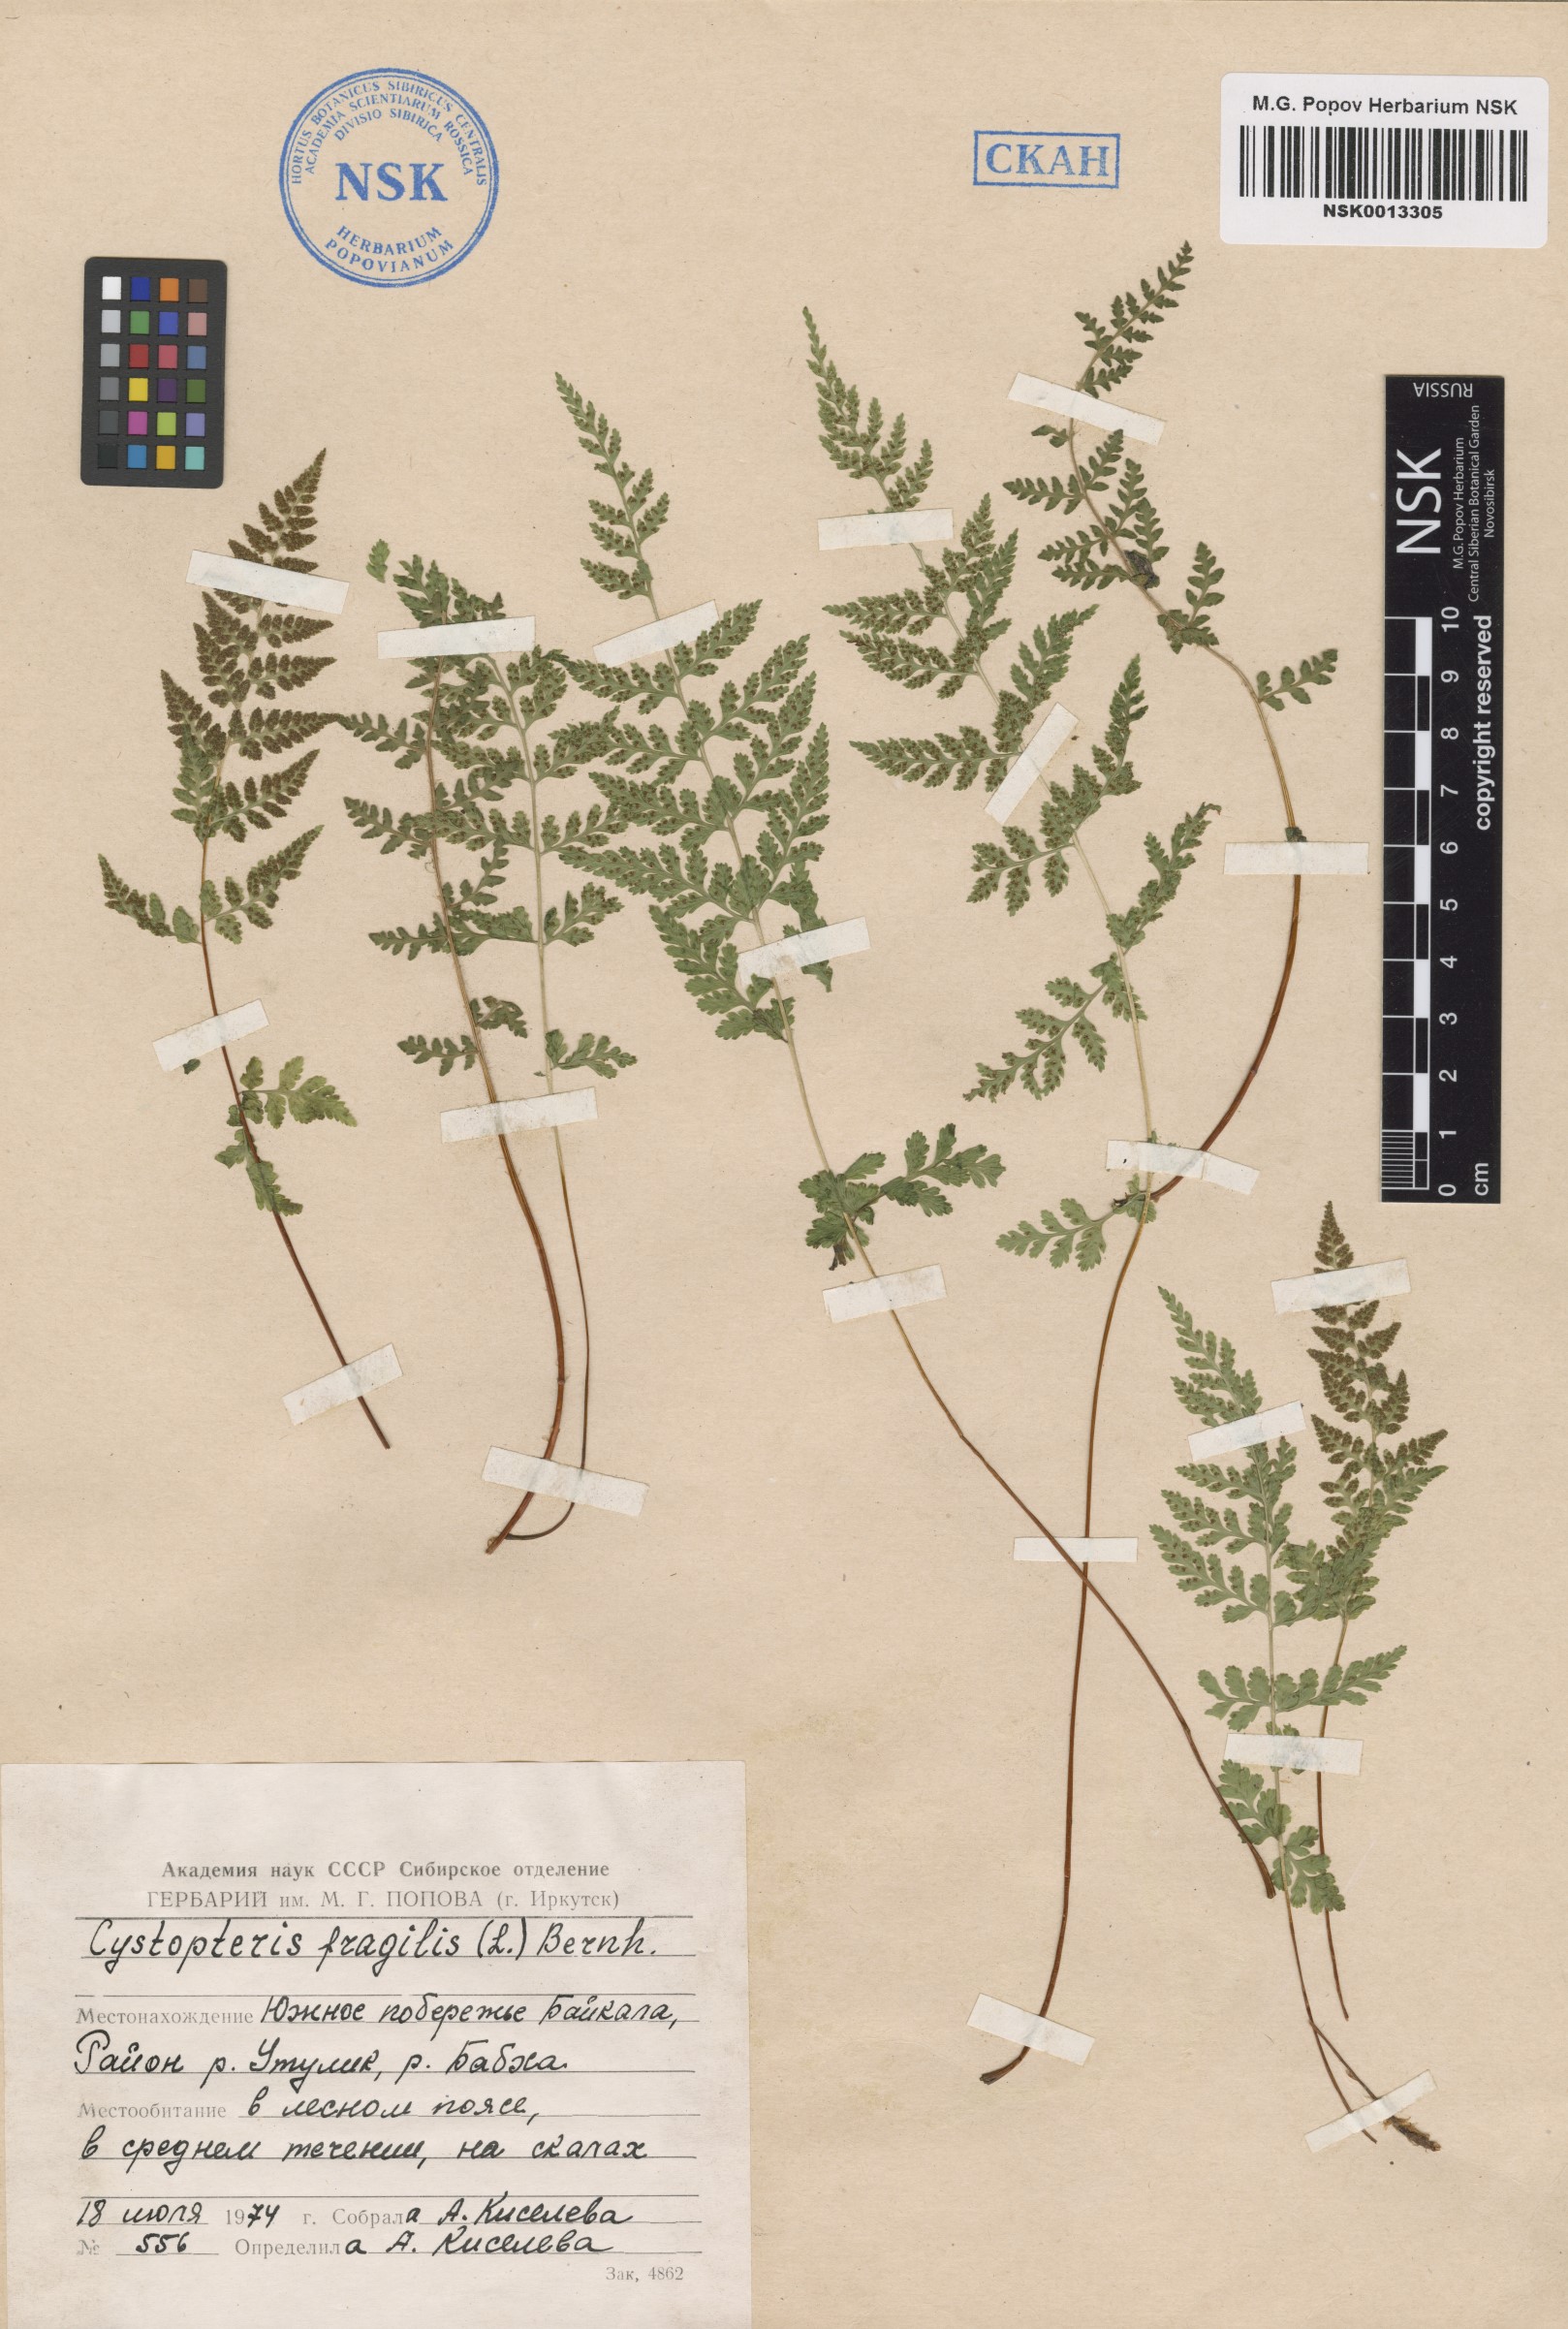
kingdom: Plantae
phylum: Tracheophyta
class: Polypodiopsida
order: Polypodiales
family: Cystopteridaceae
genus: Cystopteris
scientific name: Cystopteris fragilis
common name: Brittle bladder fern
